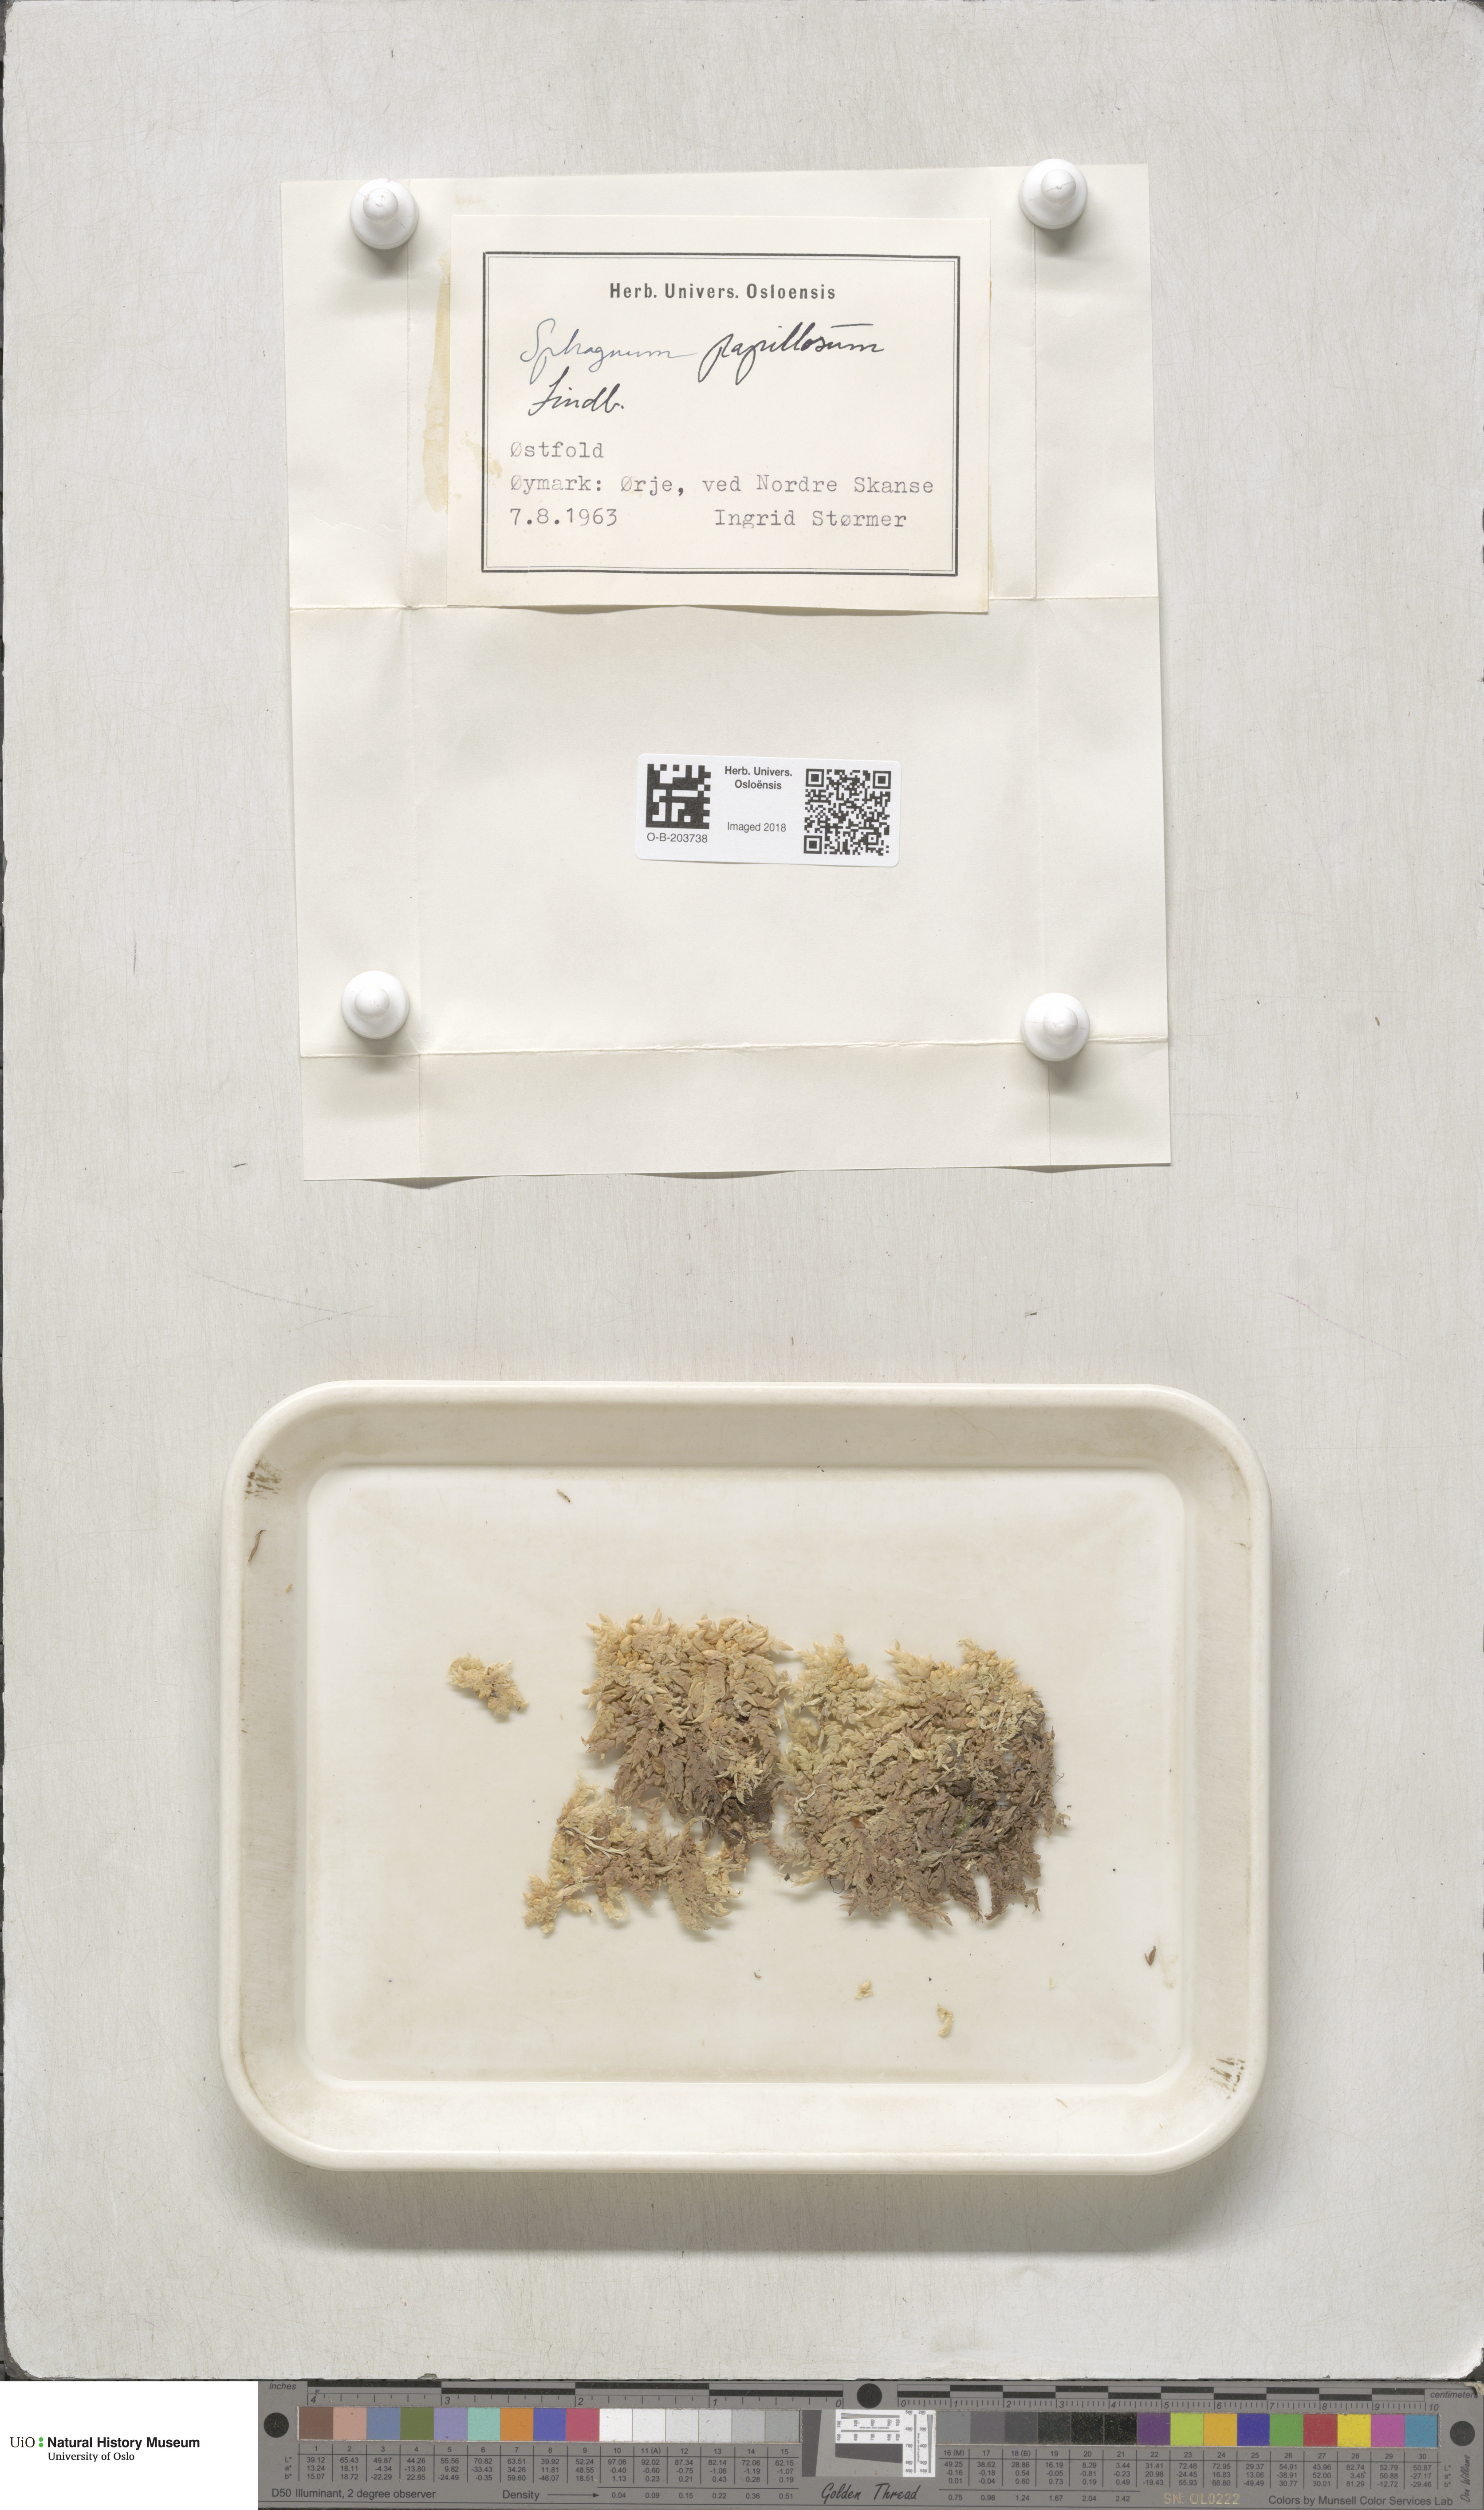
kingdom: Plantae
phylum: Bryophyta
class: Sphagnopsida
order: Sphagnales
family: Sphagnaceae
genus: Sphagnum
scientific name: Sphagnum papillosum
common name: Papillose peat moss
